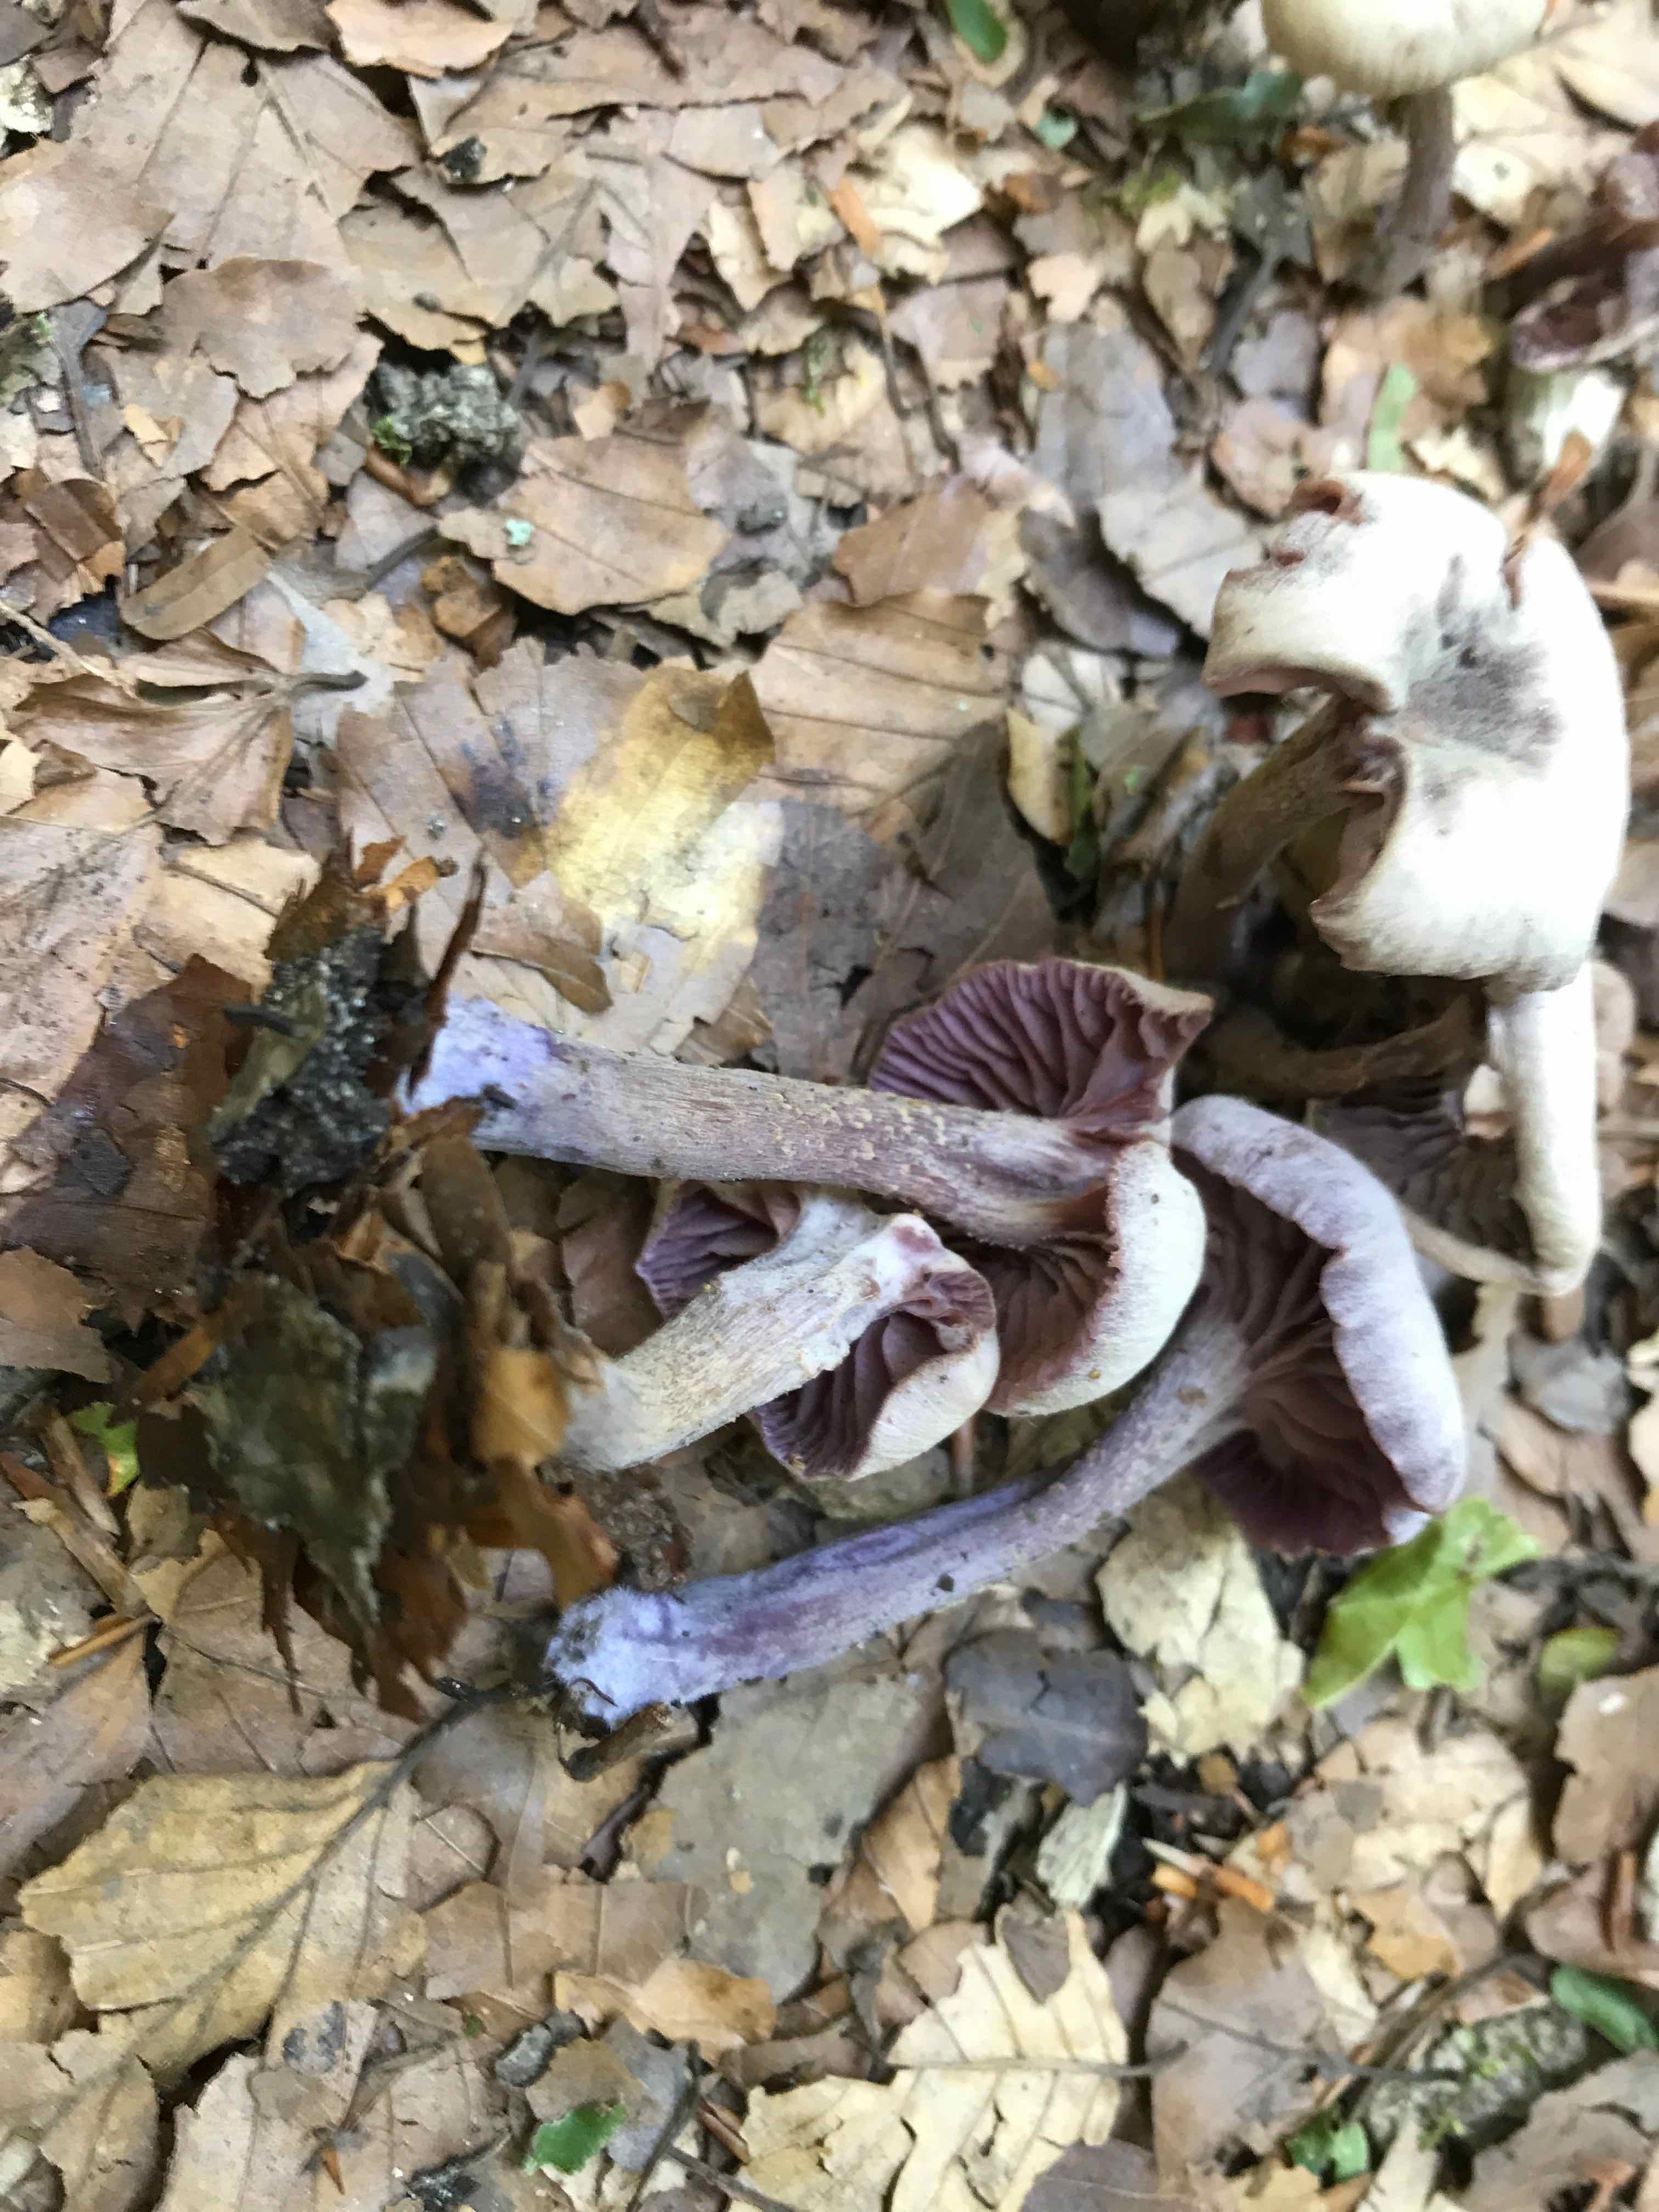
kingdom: Fungi
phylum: Basidiomycota
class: Agaricomycetes
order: Agaricales
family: Hydnangiaceae
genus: Laccaria
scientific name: Laccaria amethystina
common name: violet ametysthat
